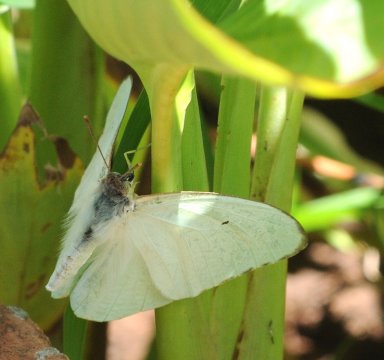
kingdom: Animalia
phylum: Arthropoda
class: Insecta
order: Lepidoptera
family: Pieridae
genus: Catopsilia
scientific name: Catopsilia florella
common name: African Migrant
